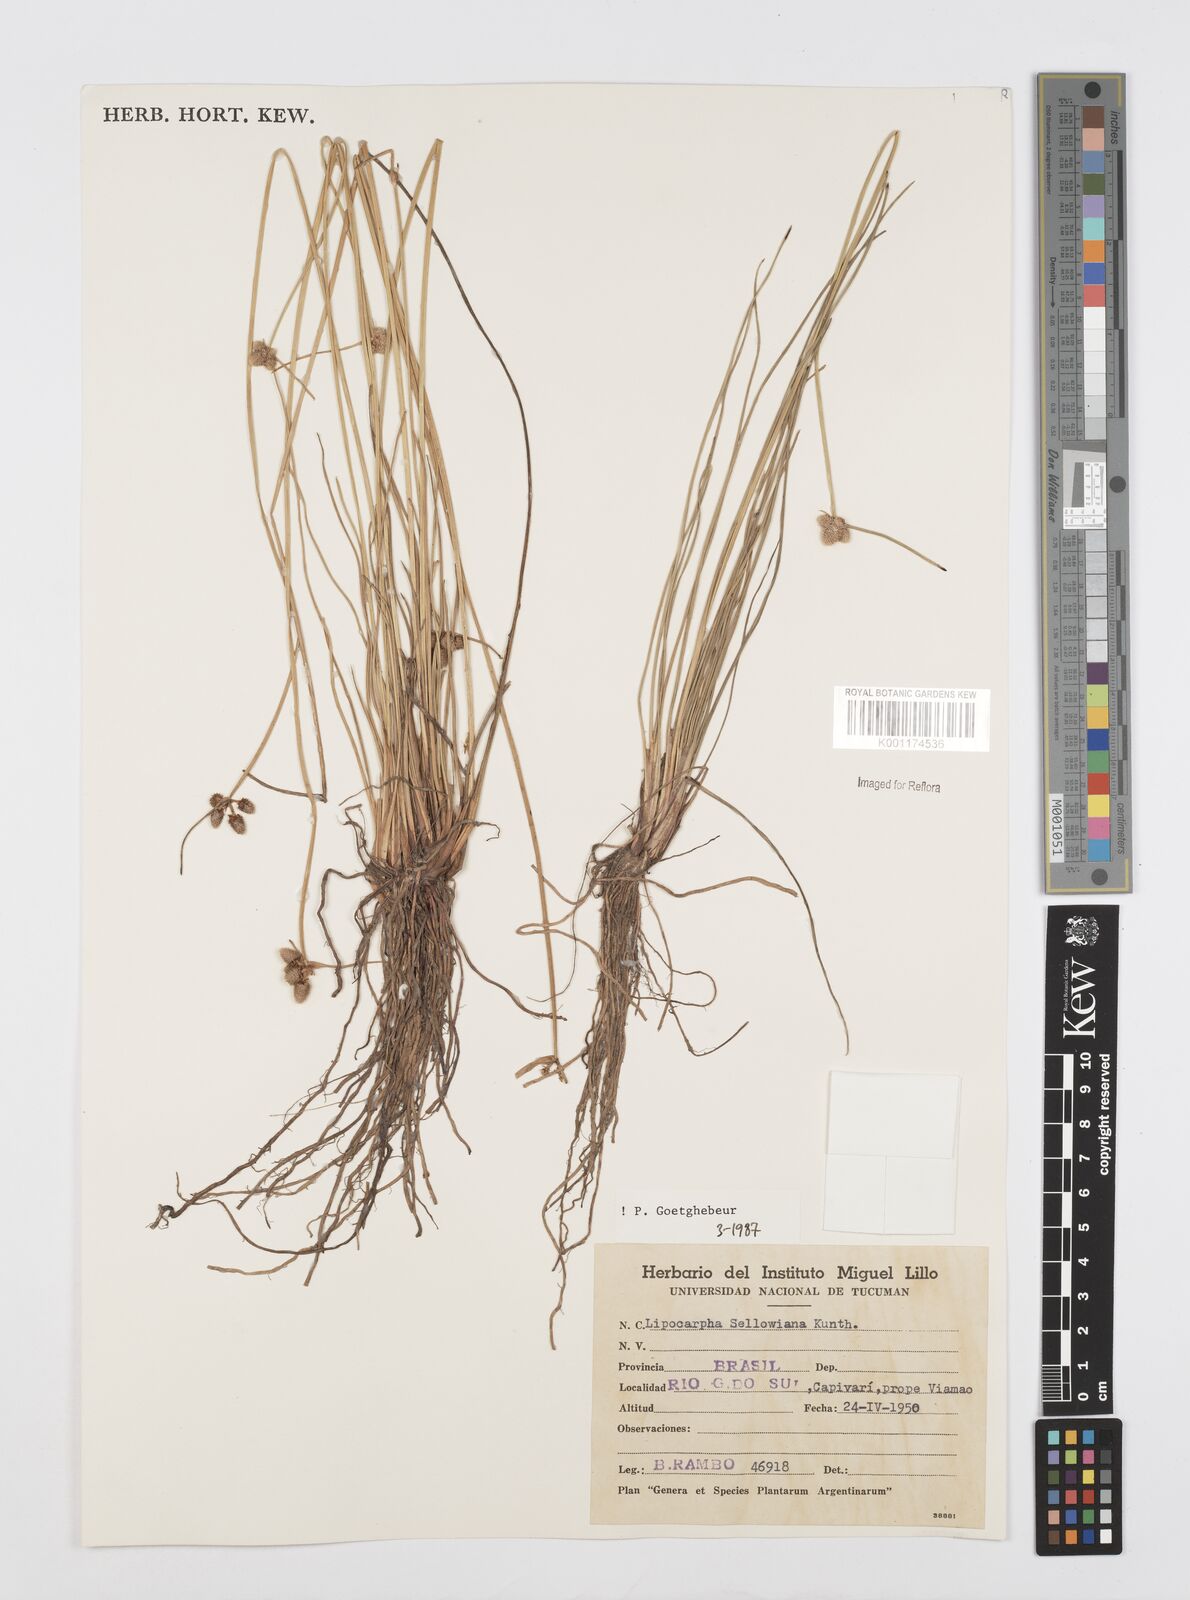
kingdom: Plantae
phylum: Tracheophyta
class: Liliopsida
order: Poales
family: Cyperaceae
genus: Cyperus
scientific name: Cyperus lanceolatus
